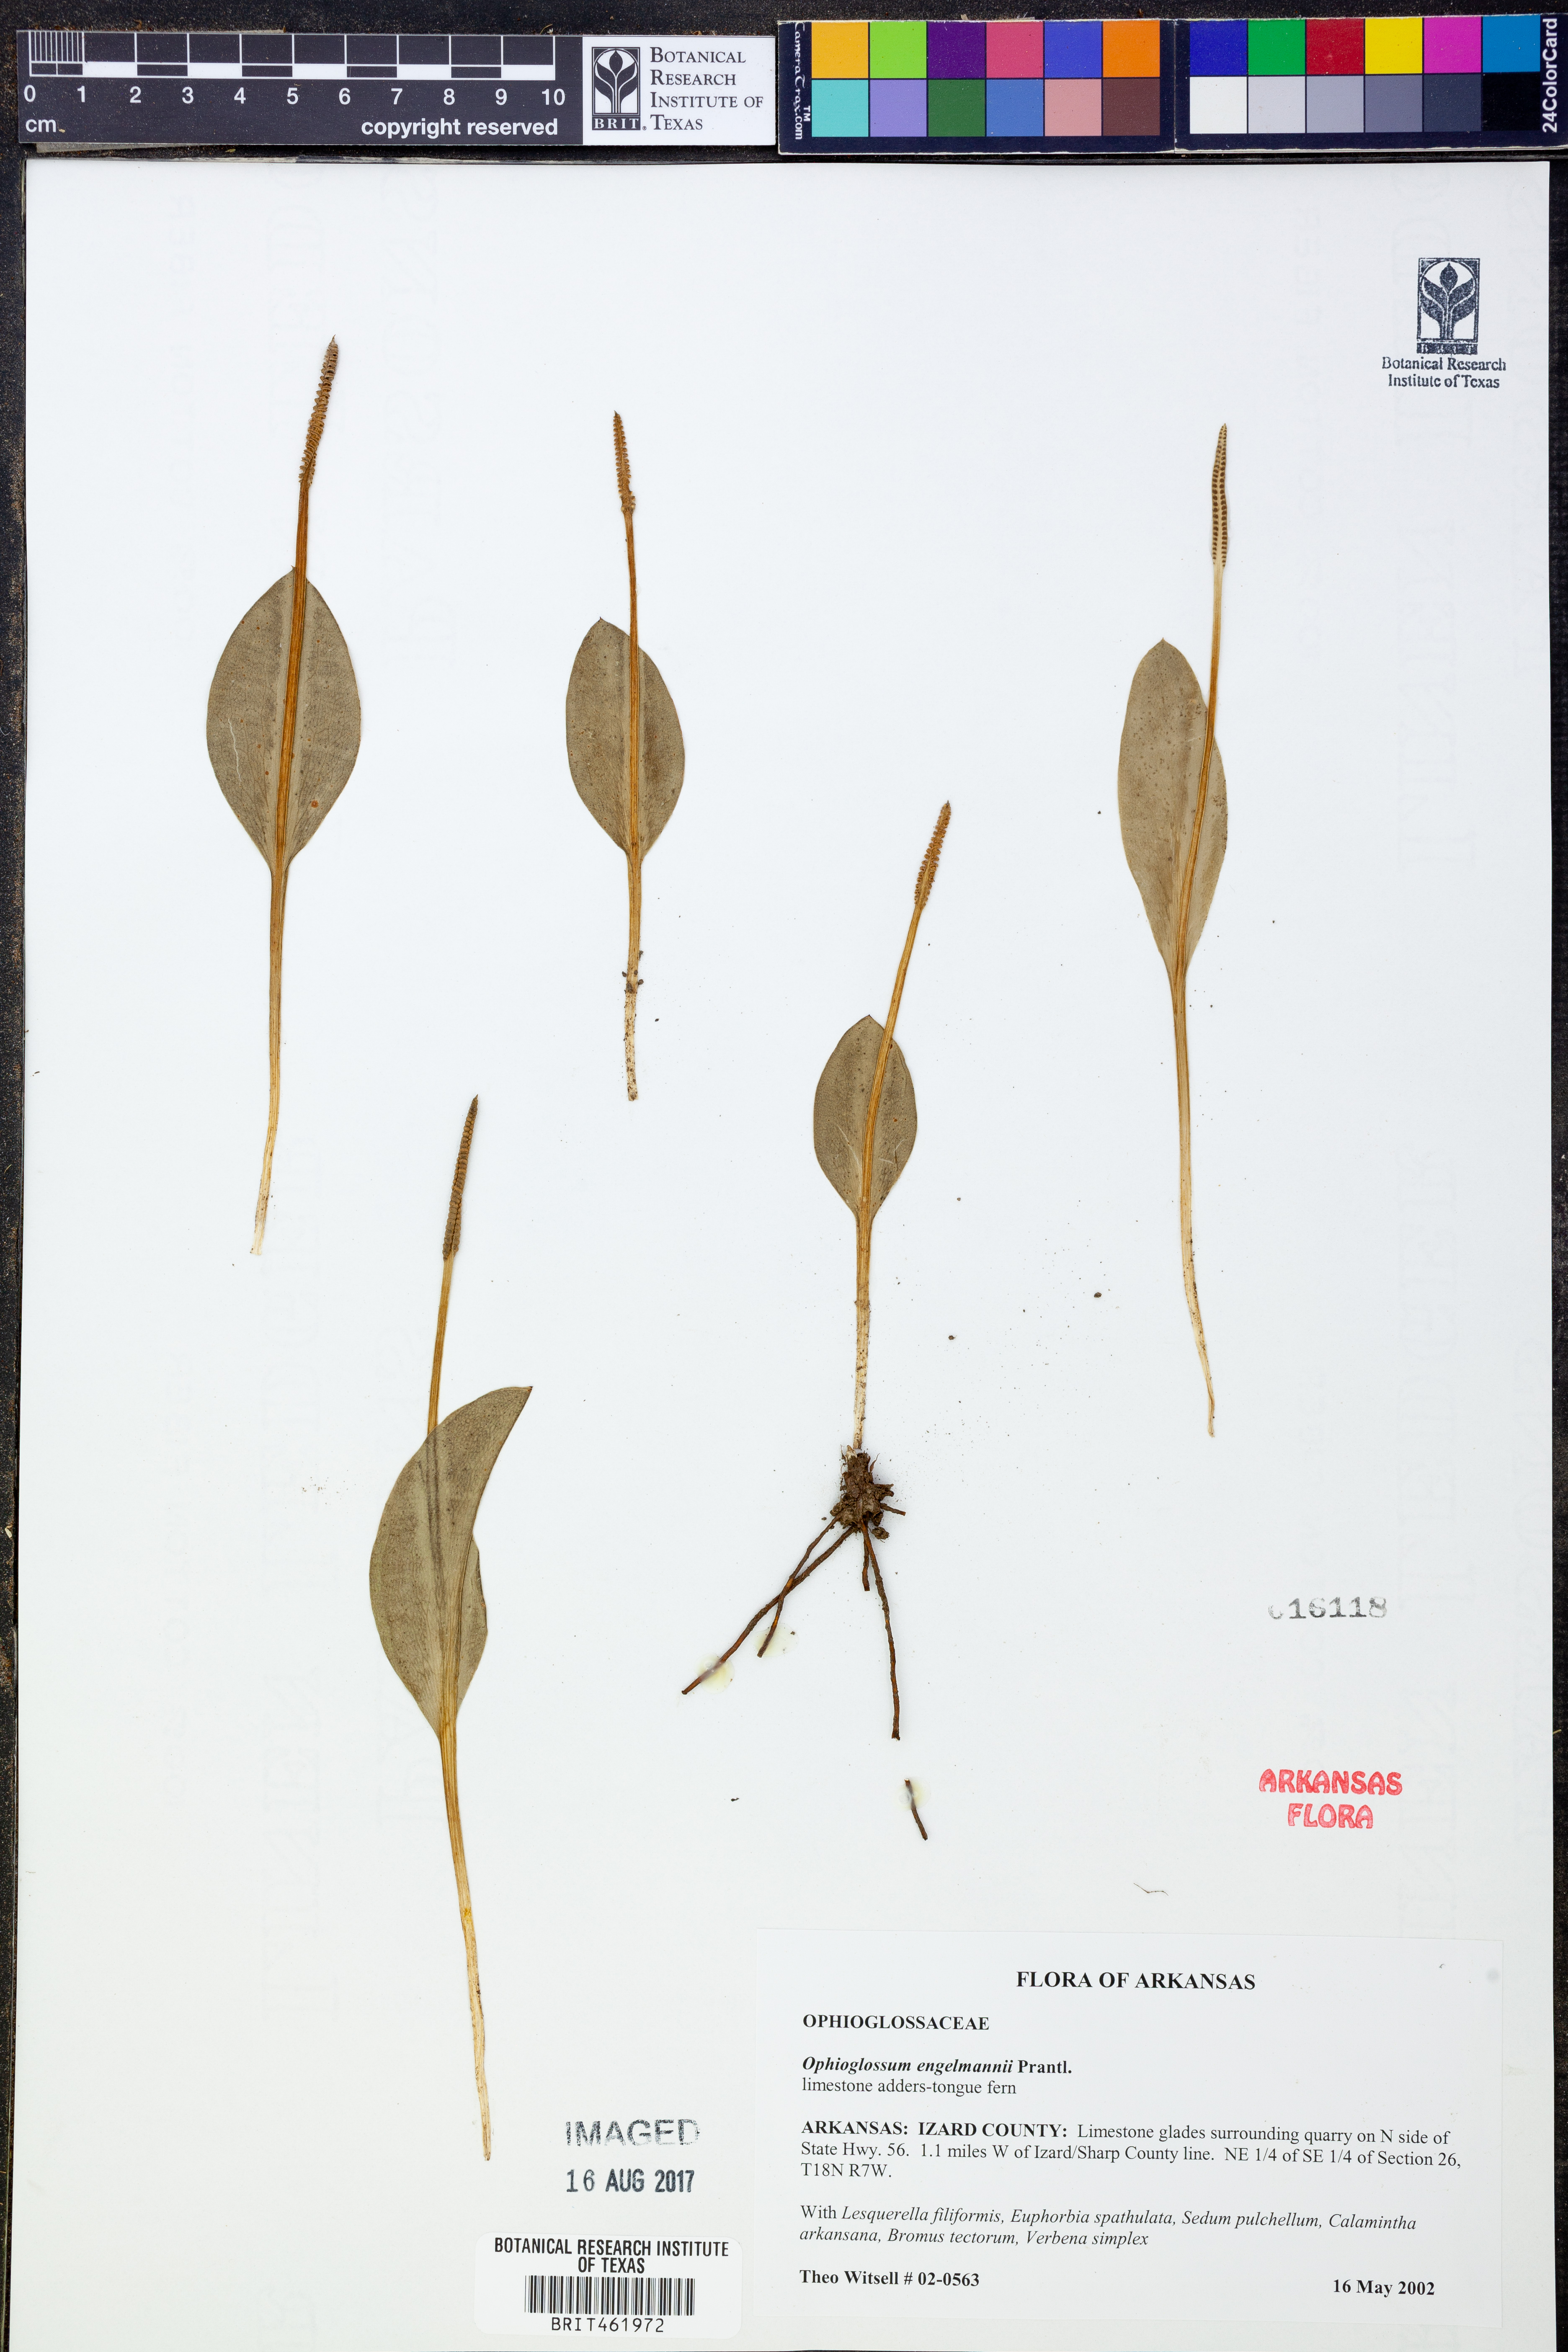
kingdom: Plantae
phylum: Tracheophyta
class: Polypodiopsida
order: Ophioglossales
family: Ophioglossaceae
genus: Ophioglossum
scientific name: Ophioglossum engelmannii
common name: Limestone adder's-tongue
